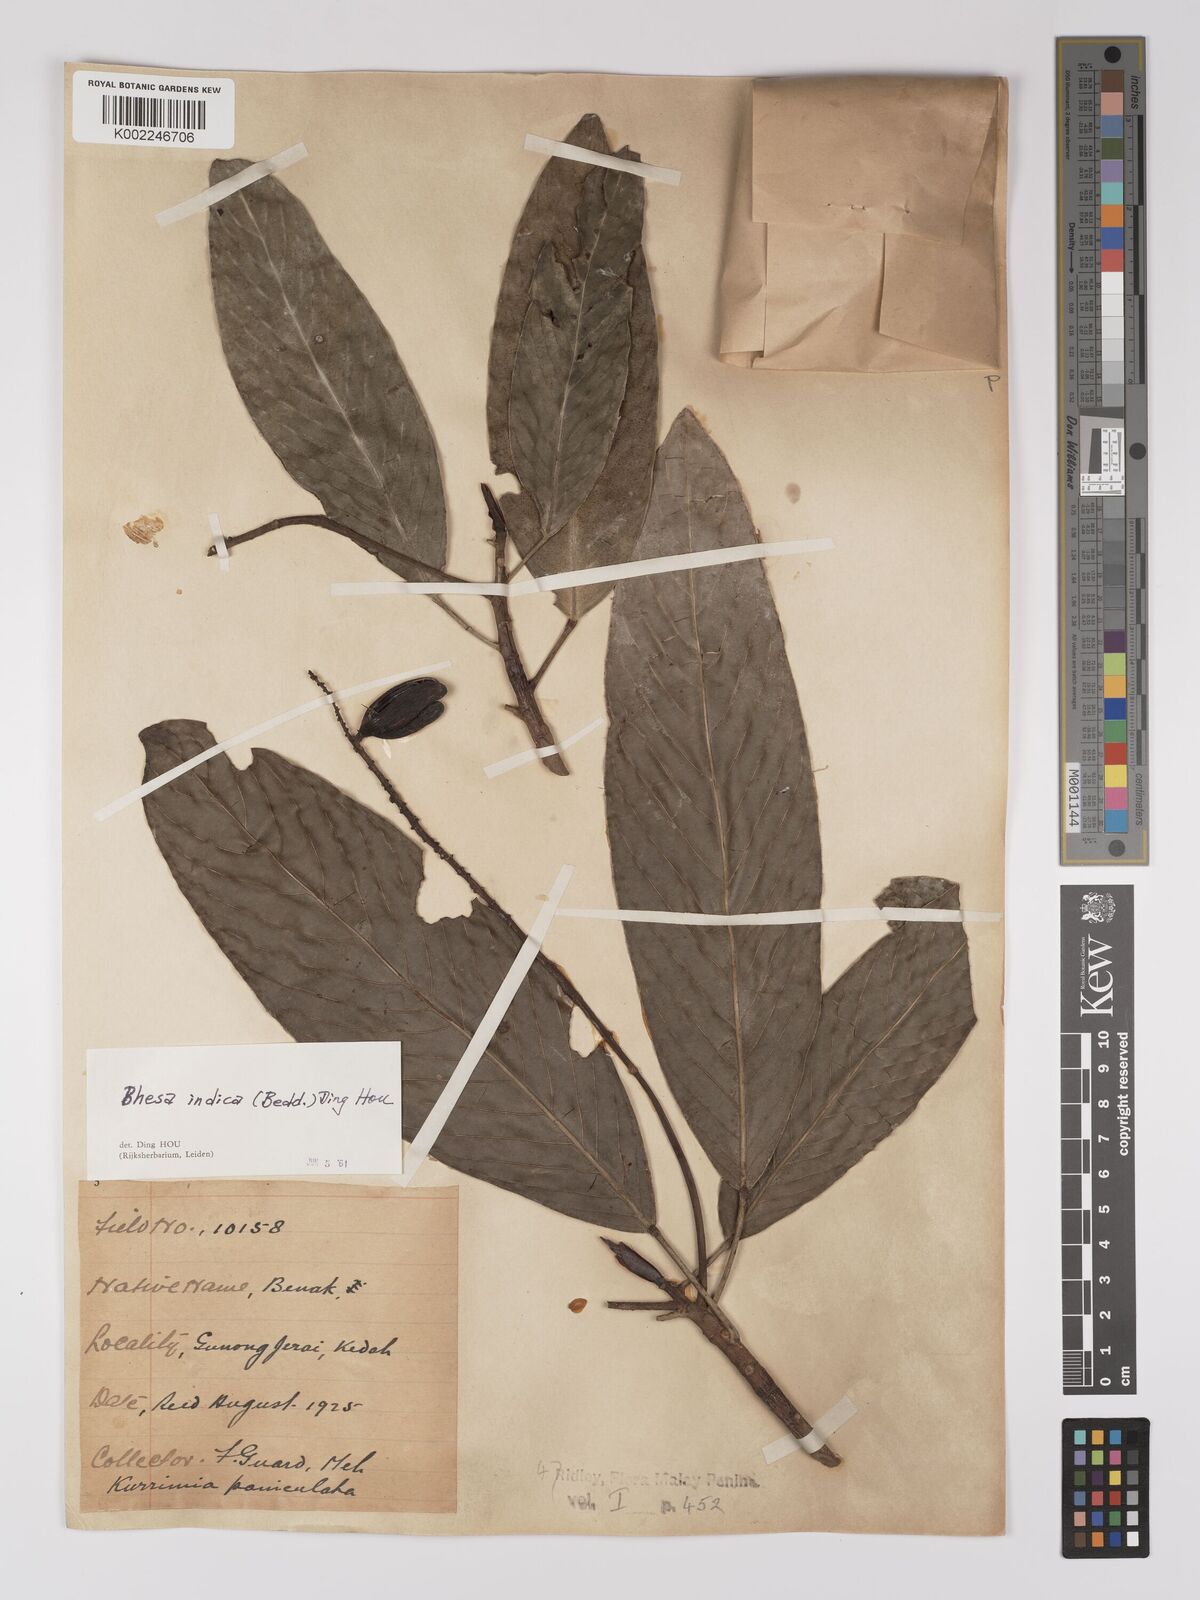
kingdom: Plantae
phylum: Tracheophyta
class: Magnoliopsida
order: Malpighiales
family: Centroplacaceae
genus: Bhesa
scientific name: Bhesa indica
